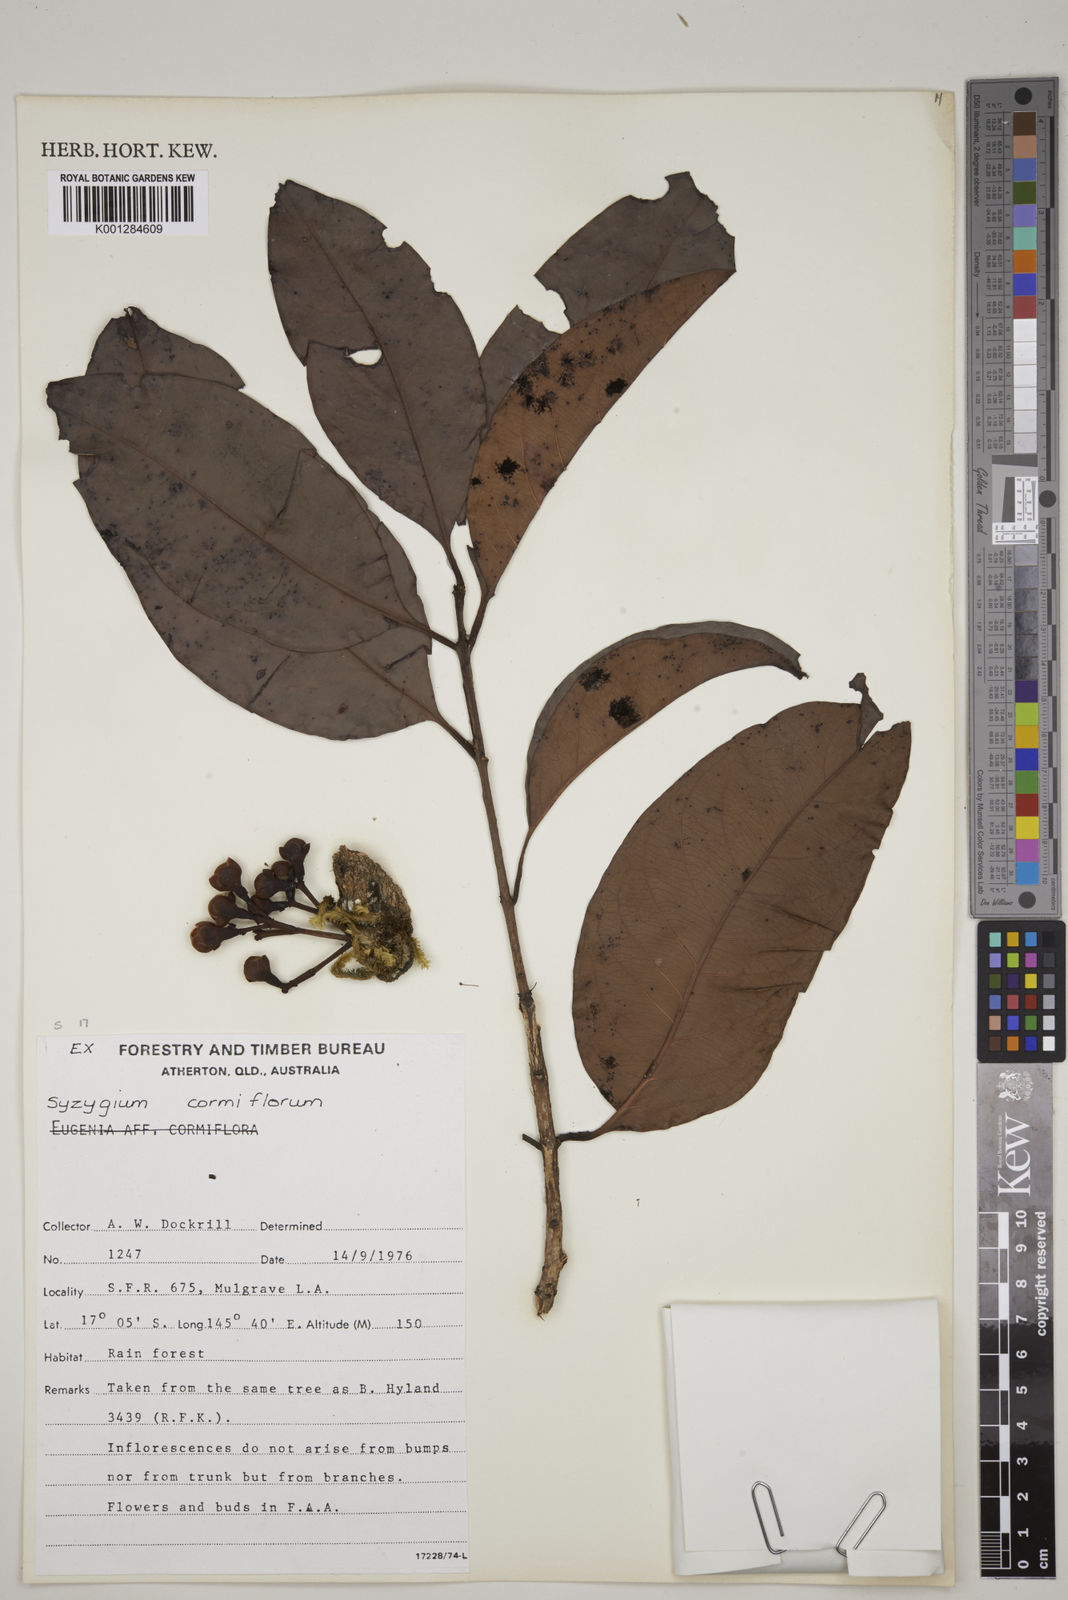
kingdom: Plantae
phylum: Tracheophyta
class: Magnoliopsida
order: Myrtales
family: Myrtaceae
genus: Syzygium
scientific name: Syzygium cormiflorum
